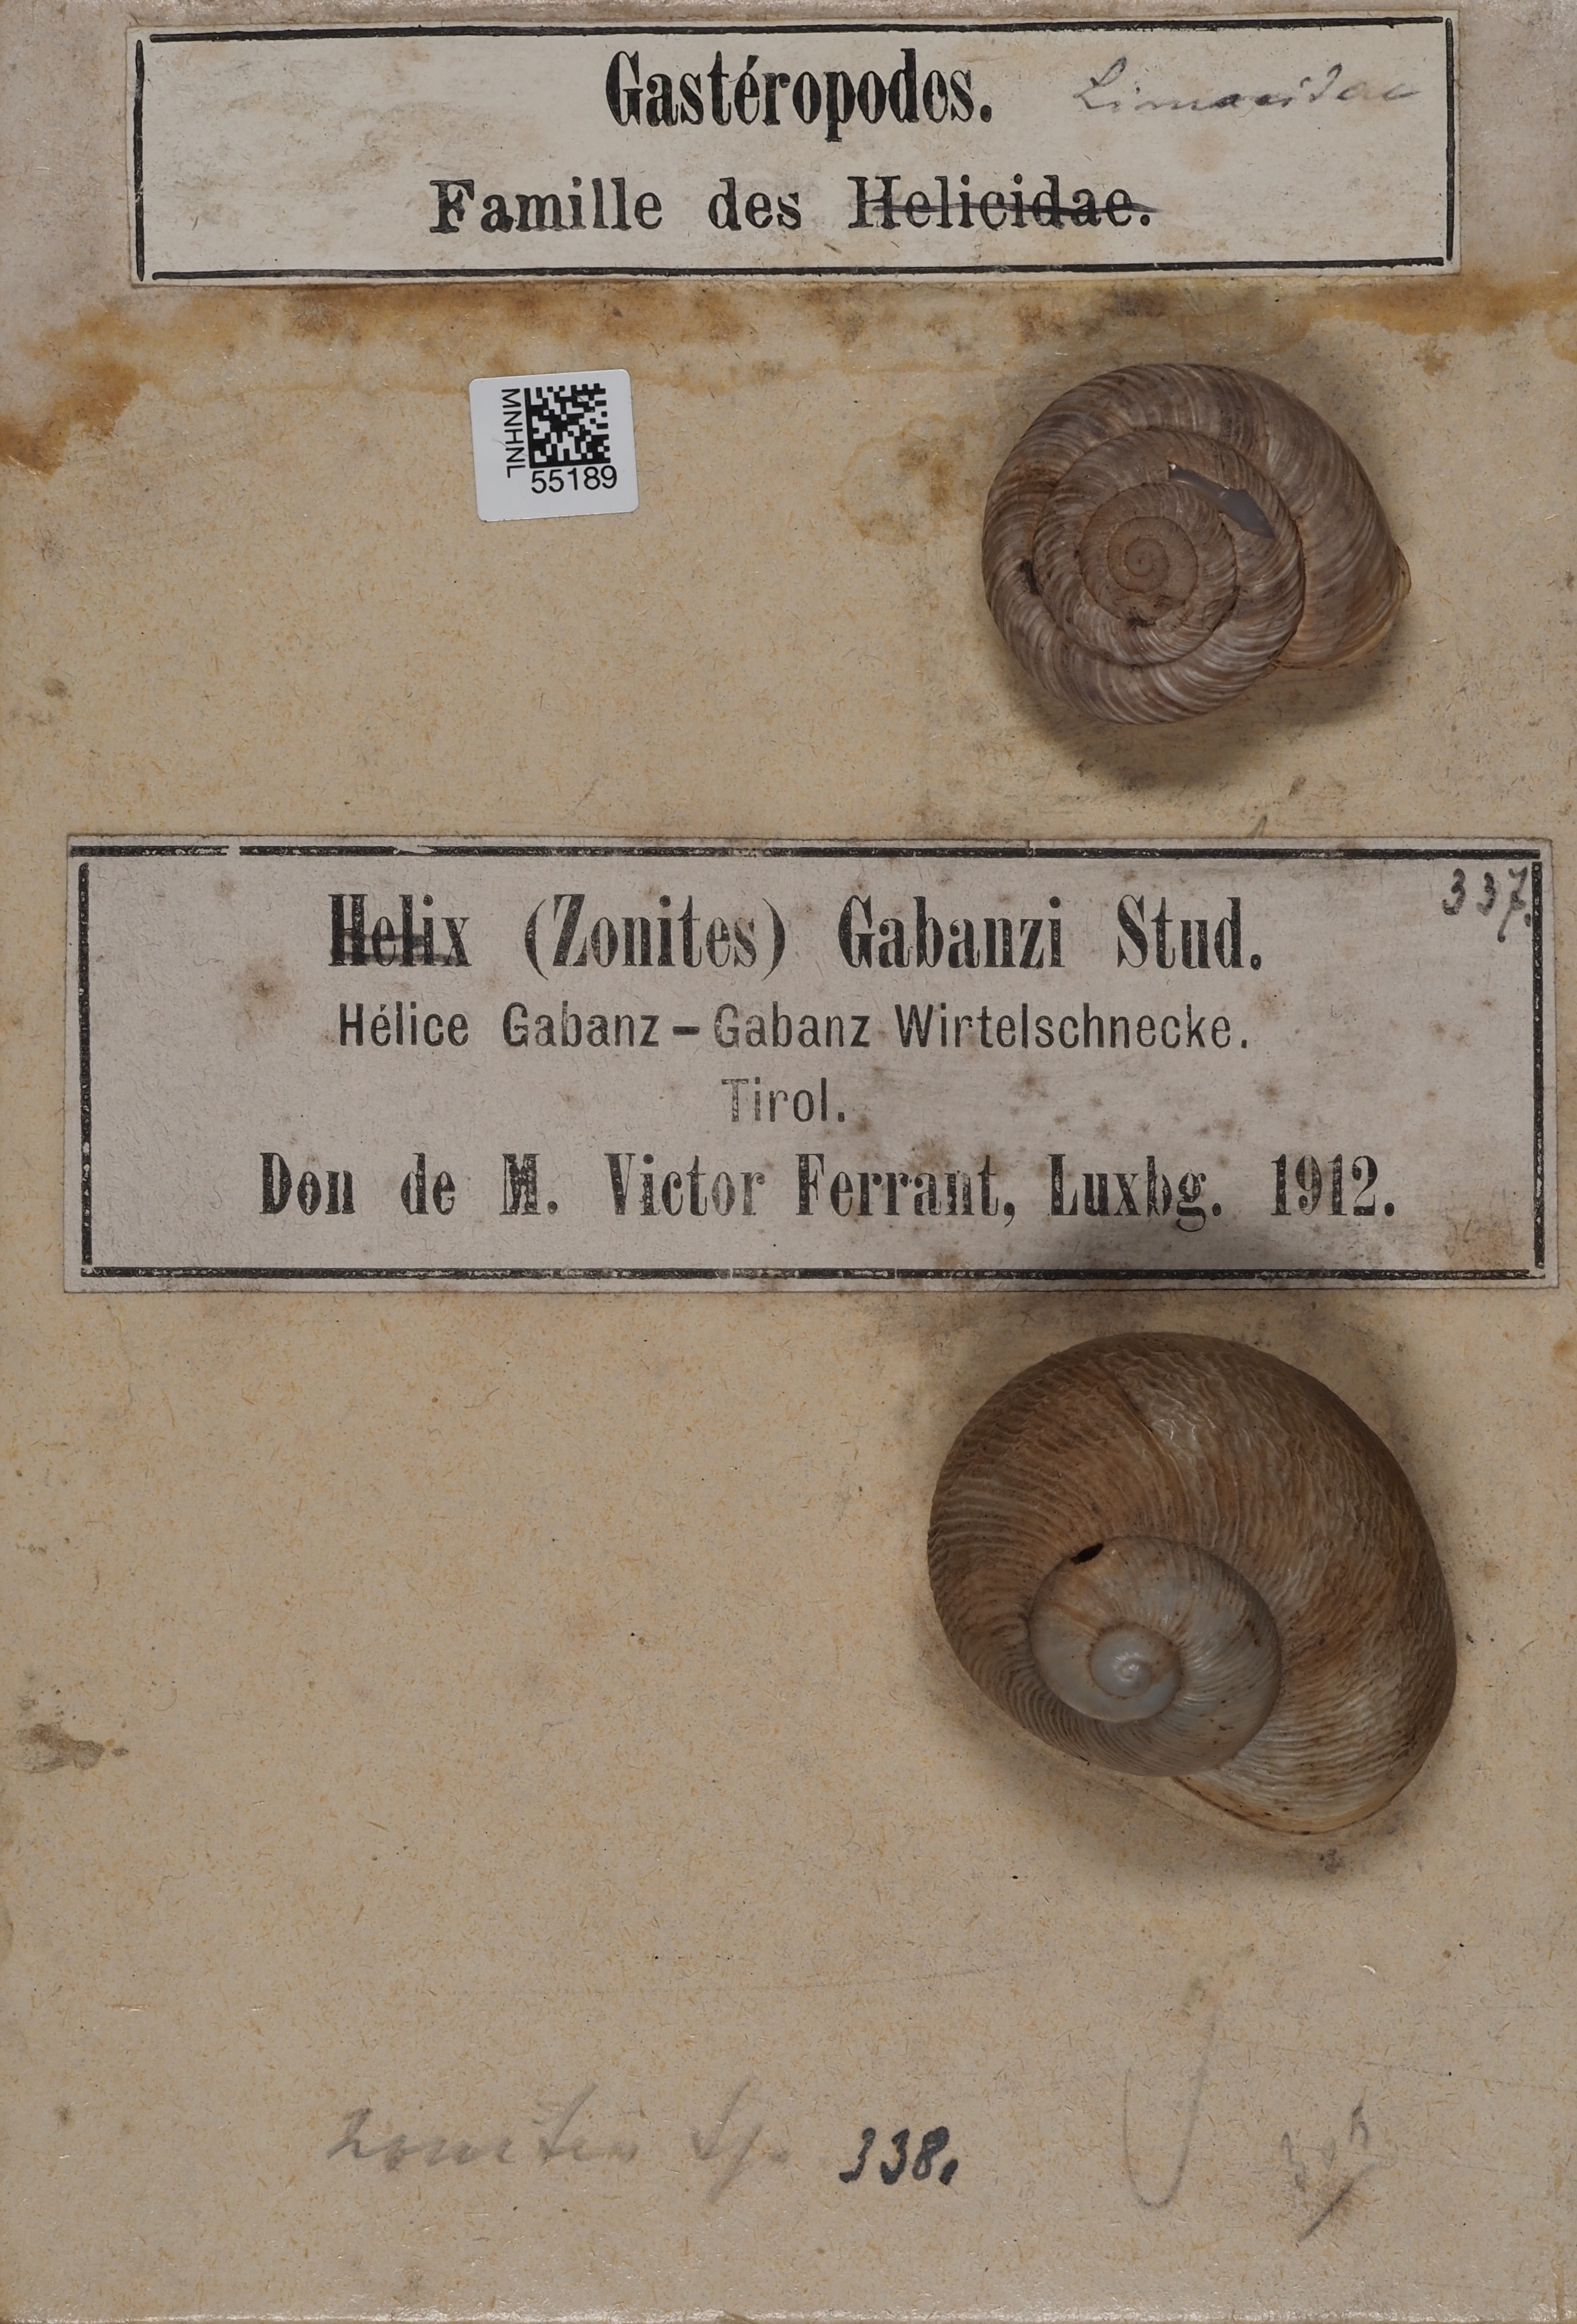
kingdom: Animalia
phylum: Mollusca
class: Gastropoda
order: Stylommatophora
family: Zonitidae
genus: Zonites
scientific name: Zonites
